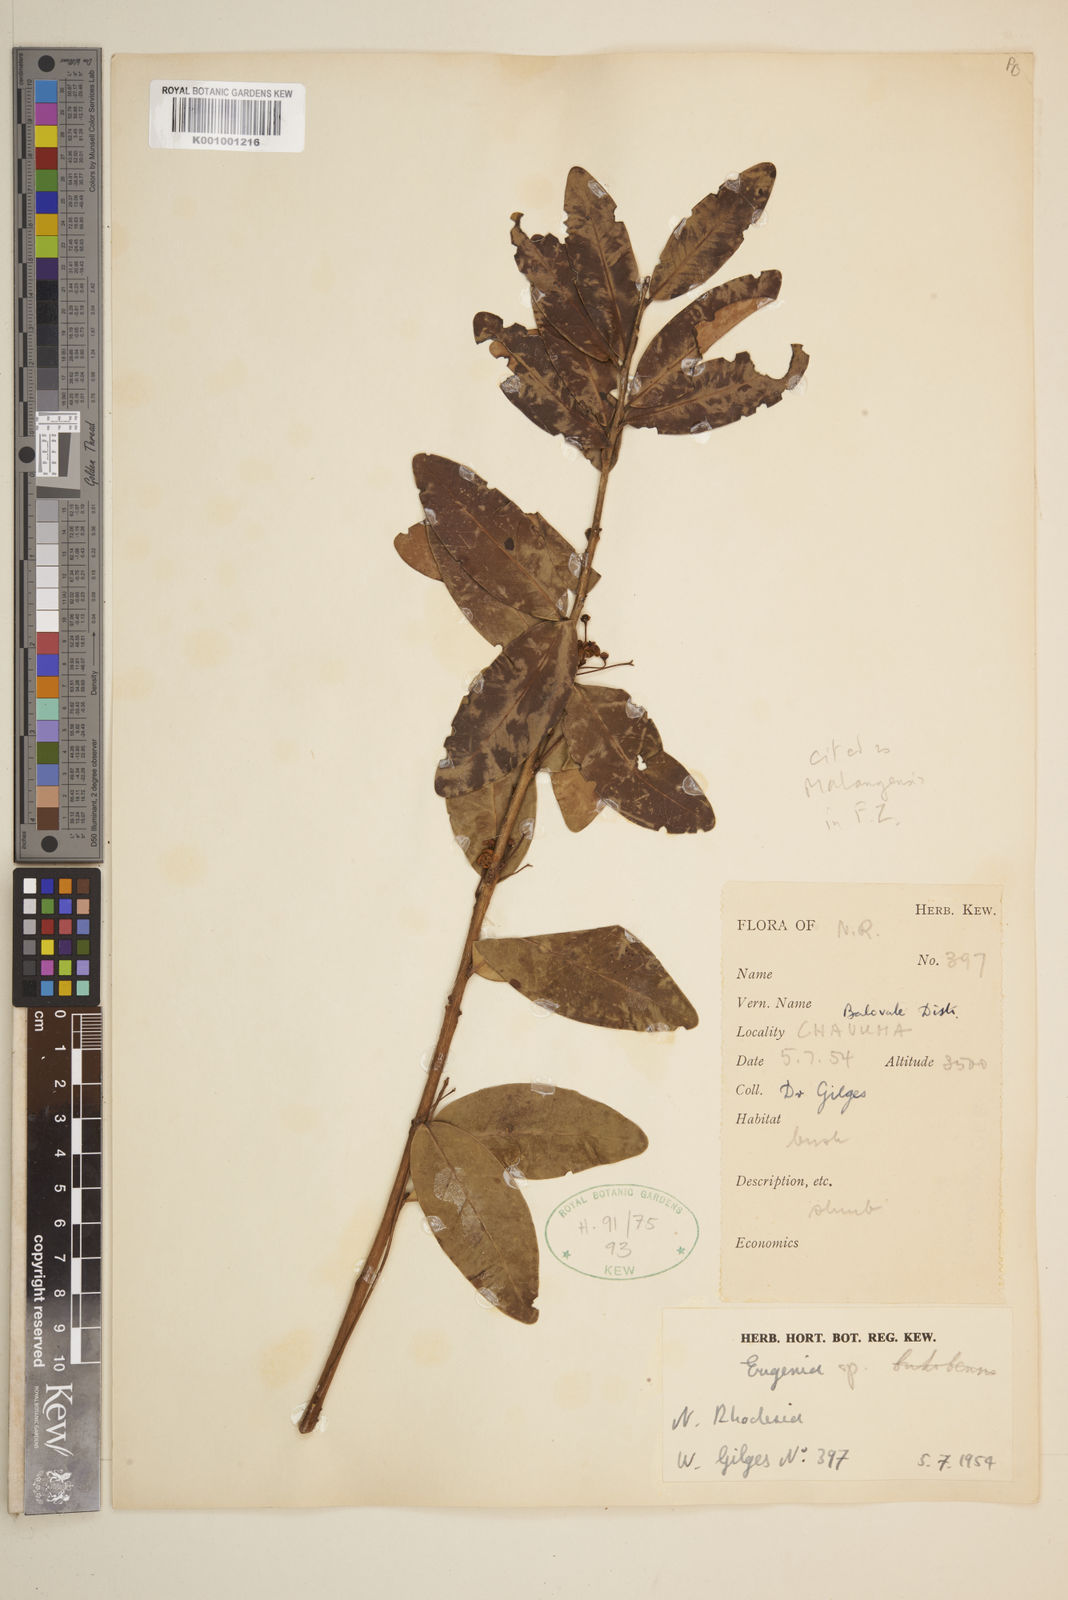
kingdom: Plantae
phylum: Tracheophyta
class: Magnoliopsida
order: Myrtales
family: Myrtaceae
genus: Eugenia
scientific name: Eugenia malangensis
